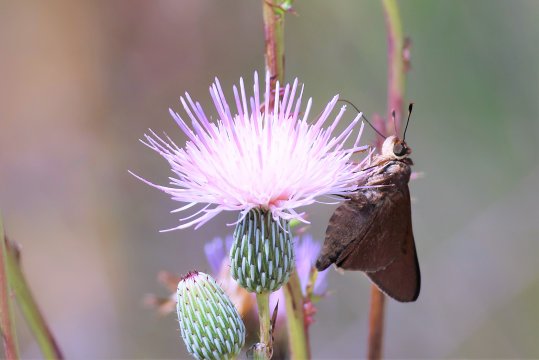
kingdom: Animalia
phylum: Arthropoda
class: Insecta
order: Lepidoptera
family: Hesperiidae
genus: Asbolis
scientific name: Asbolis capucinus
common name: Monk Skipper
